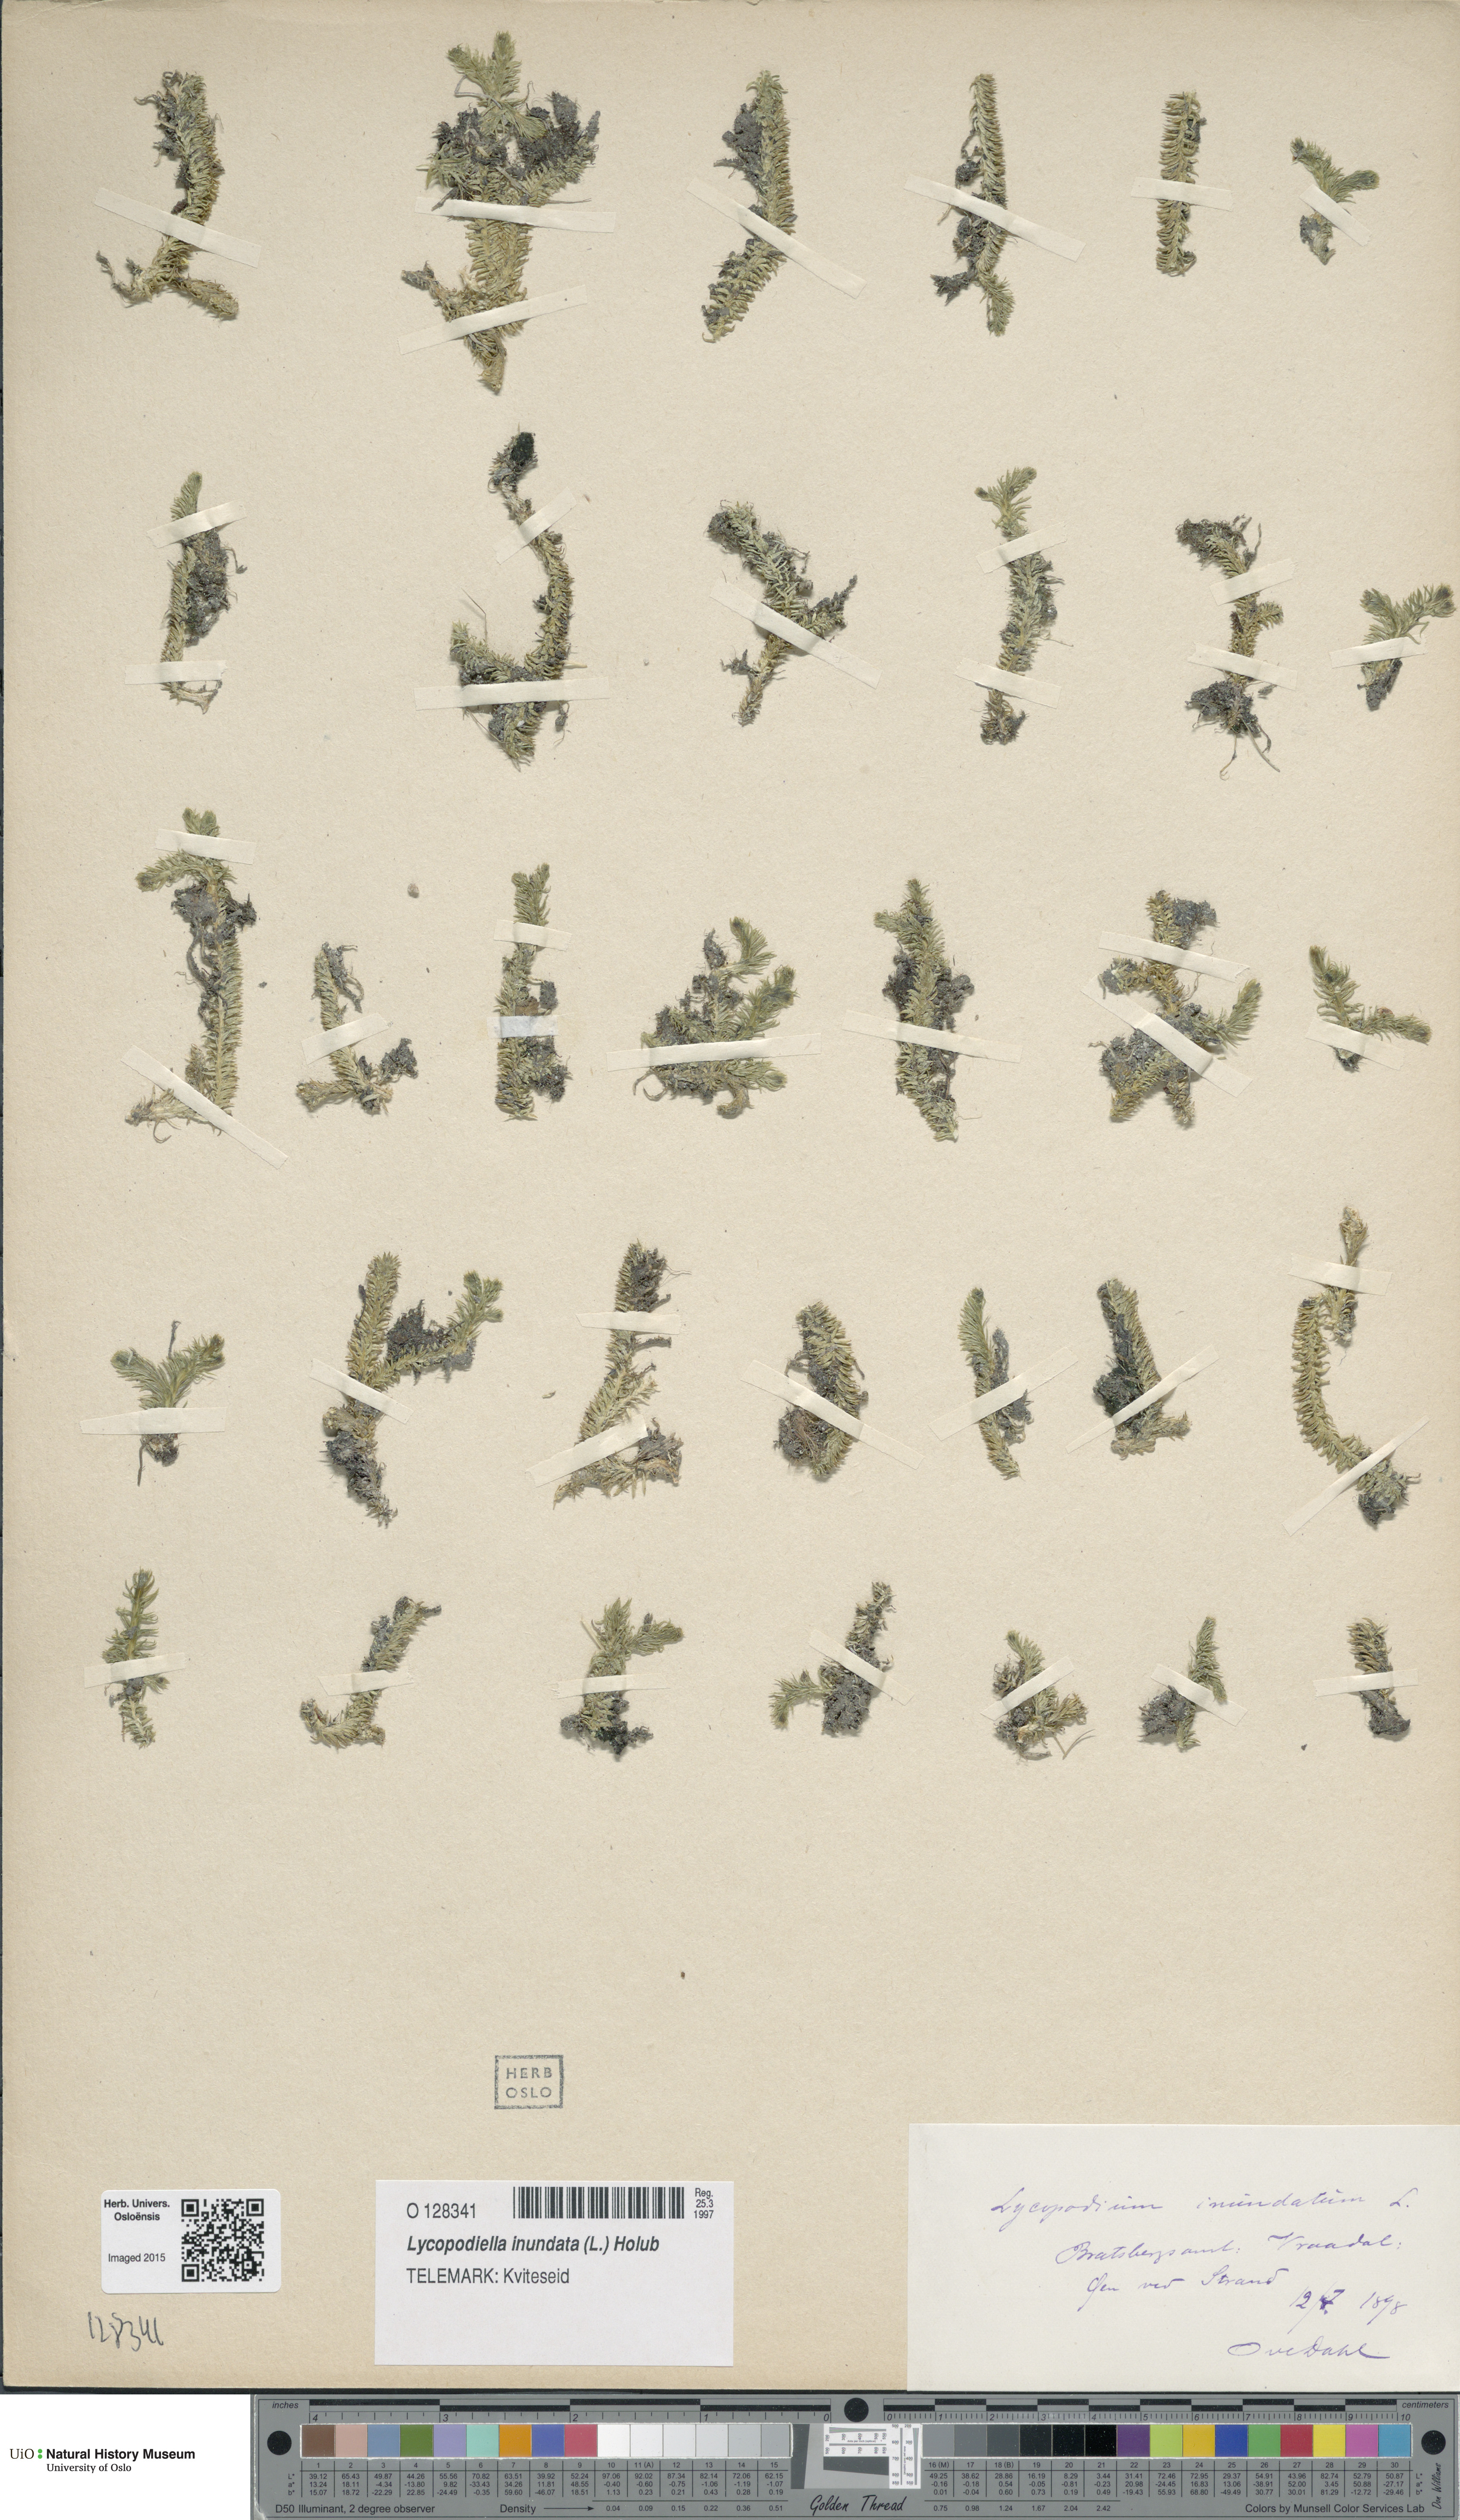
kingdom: Plantae
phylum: Tracheophyta
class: Lycopodiopsida
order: Lycopodiales
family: Lycopodiaceae
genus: Lycopodiella
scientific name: Lycopodiella inundata
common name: Marsh clubmoss
